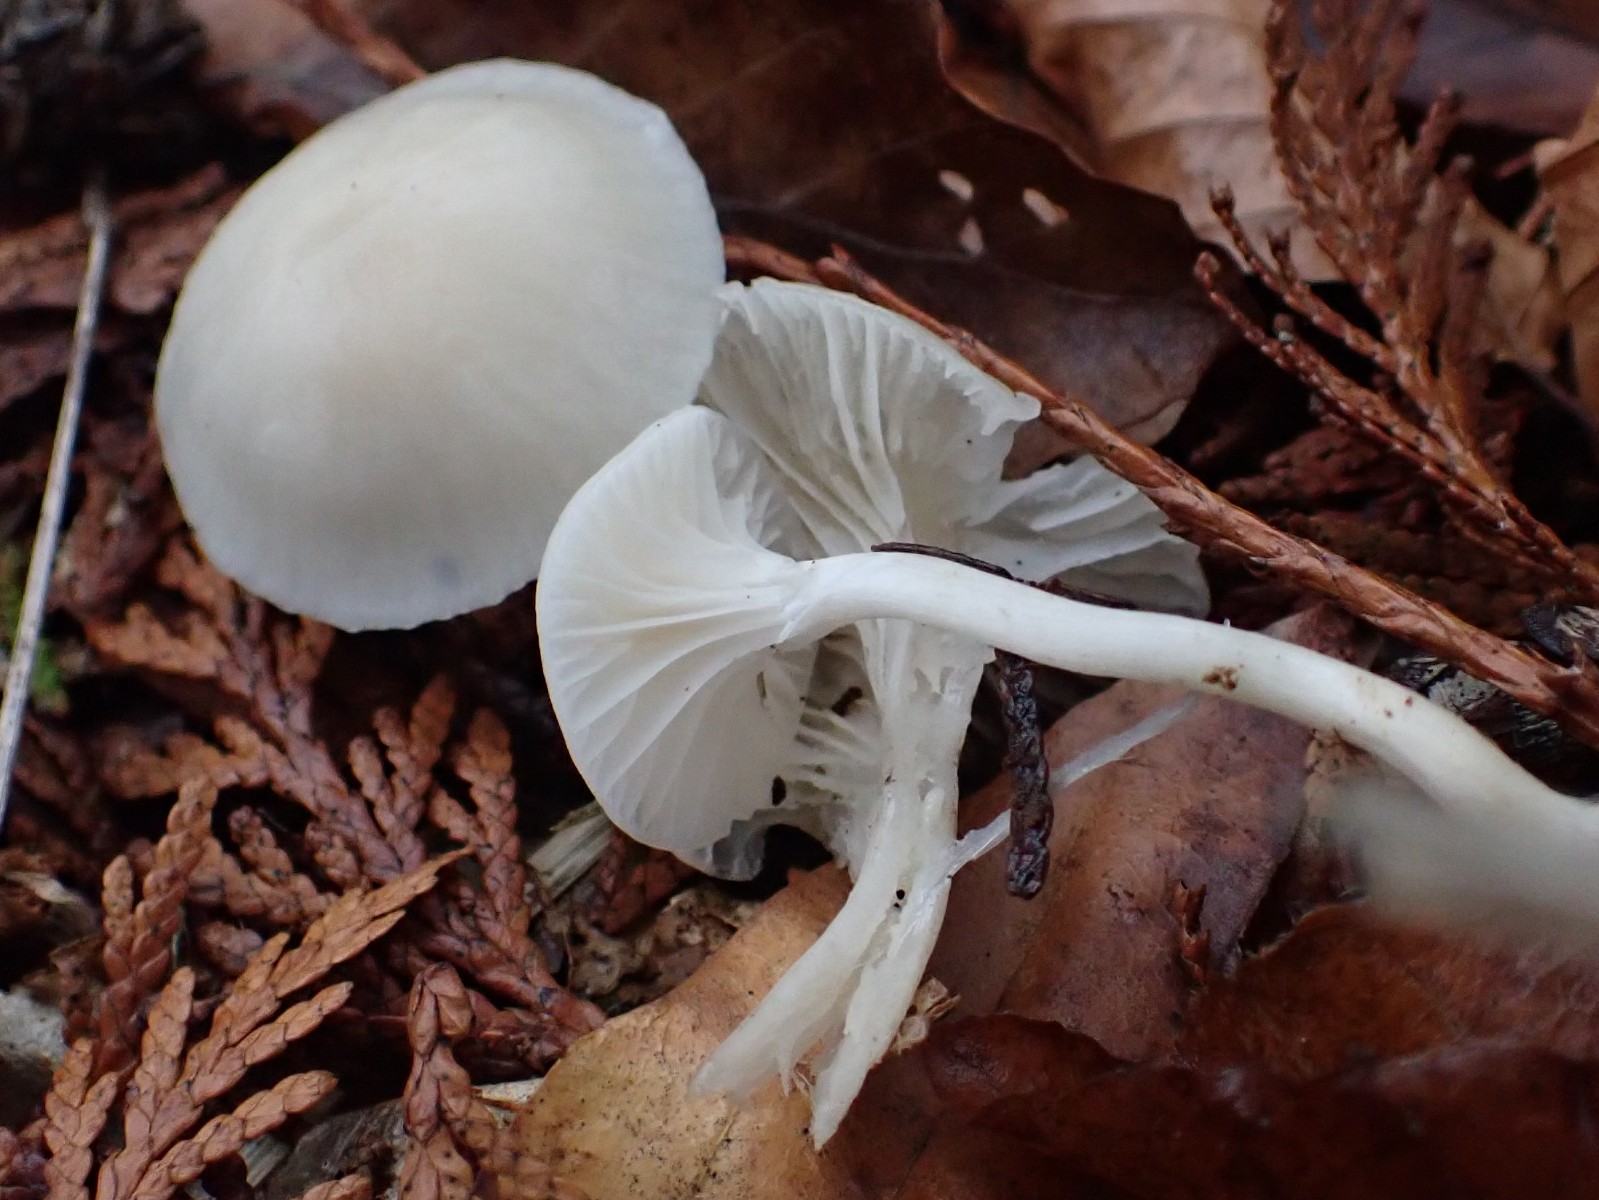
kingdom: Fungi
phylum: Basidiomycota
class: Agaricomycetes
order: Agaricales
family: Hygrophoraceae
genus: Cuphophyllus
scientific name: Cuphophyllus virgineus
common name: snehvid vokshat
